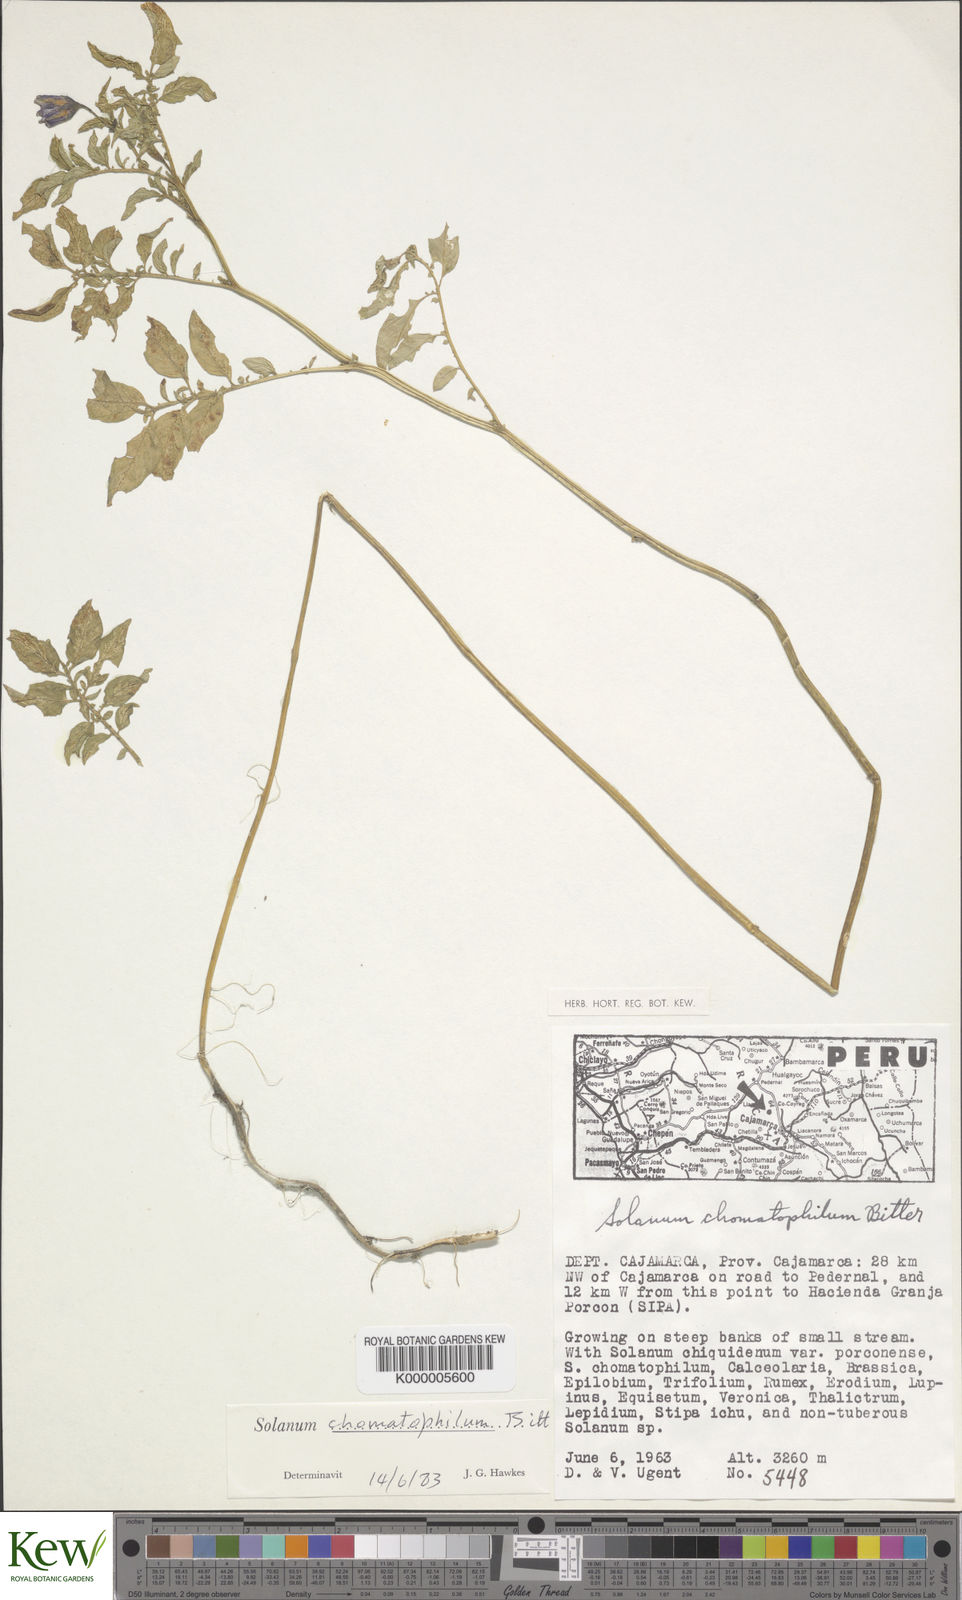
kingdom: Plantae
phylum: Tracheophyta
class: Magnoliopsida
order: Solanales
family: Solanaceae
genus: Solanum
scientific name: Solanum chomatophilum
